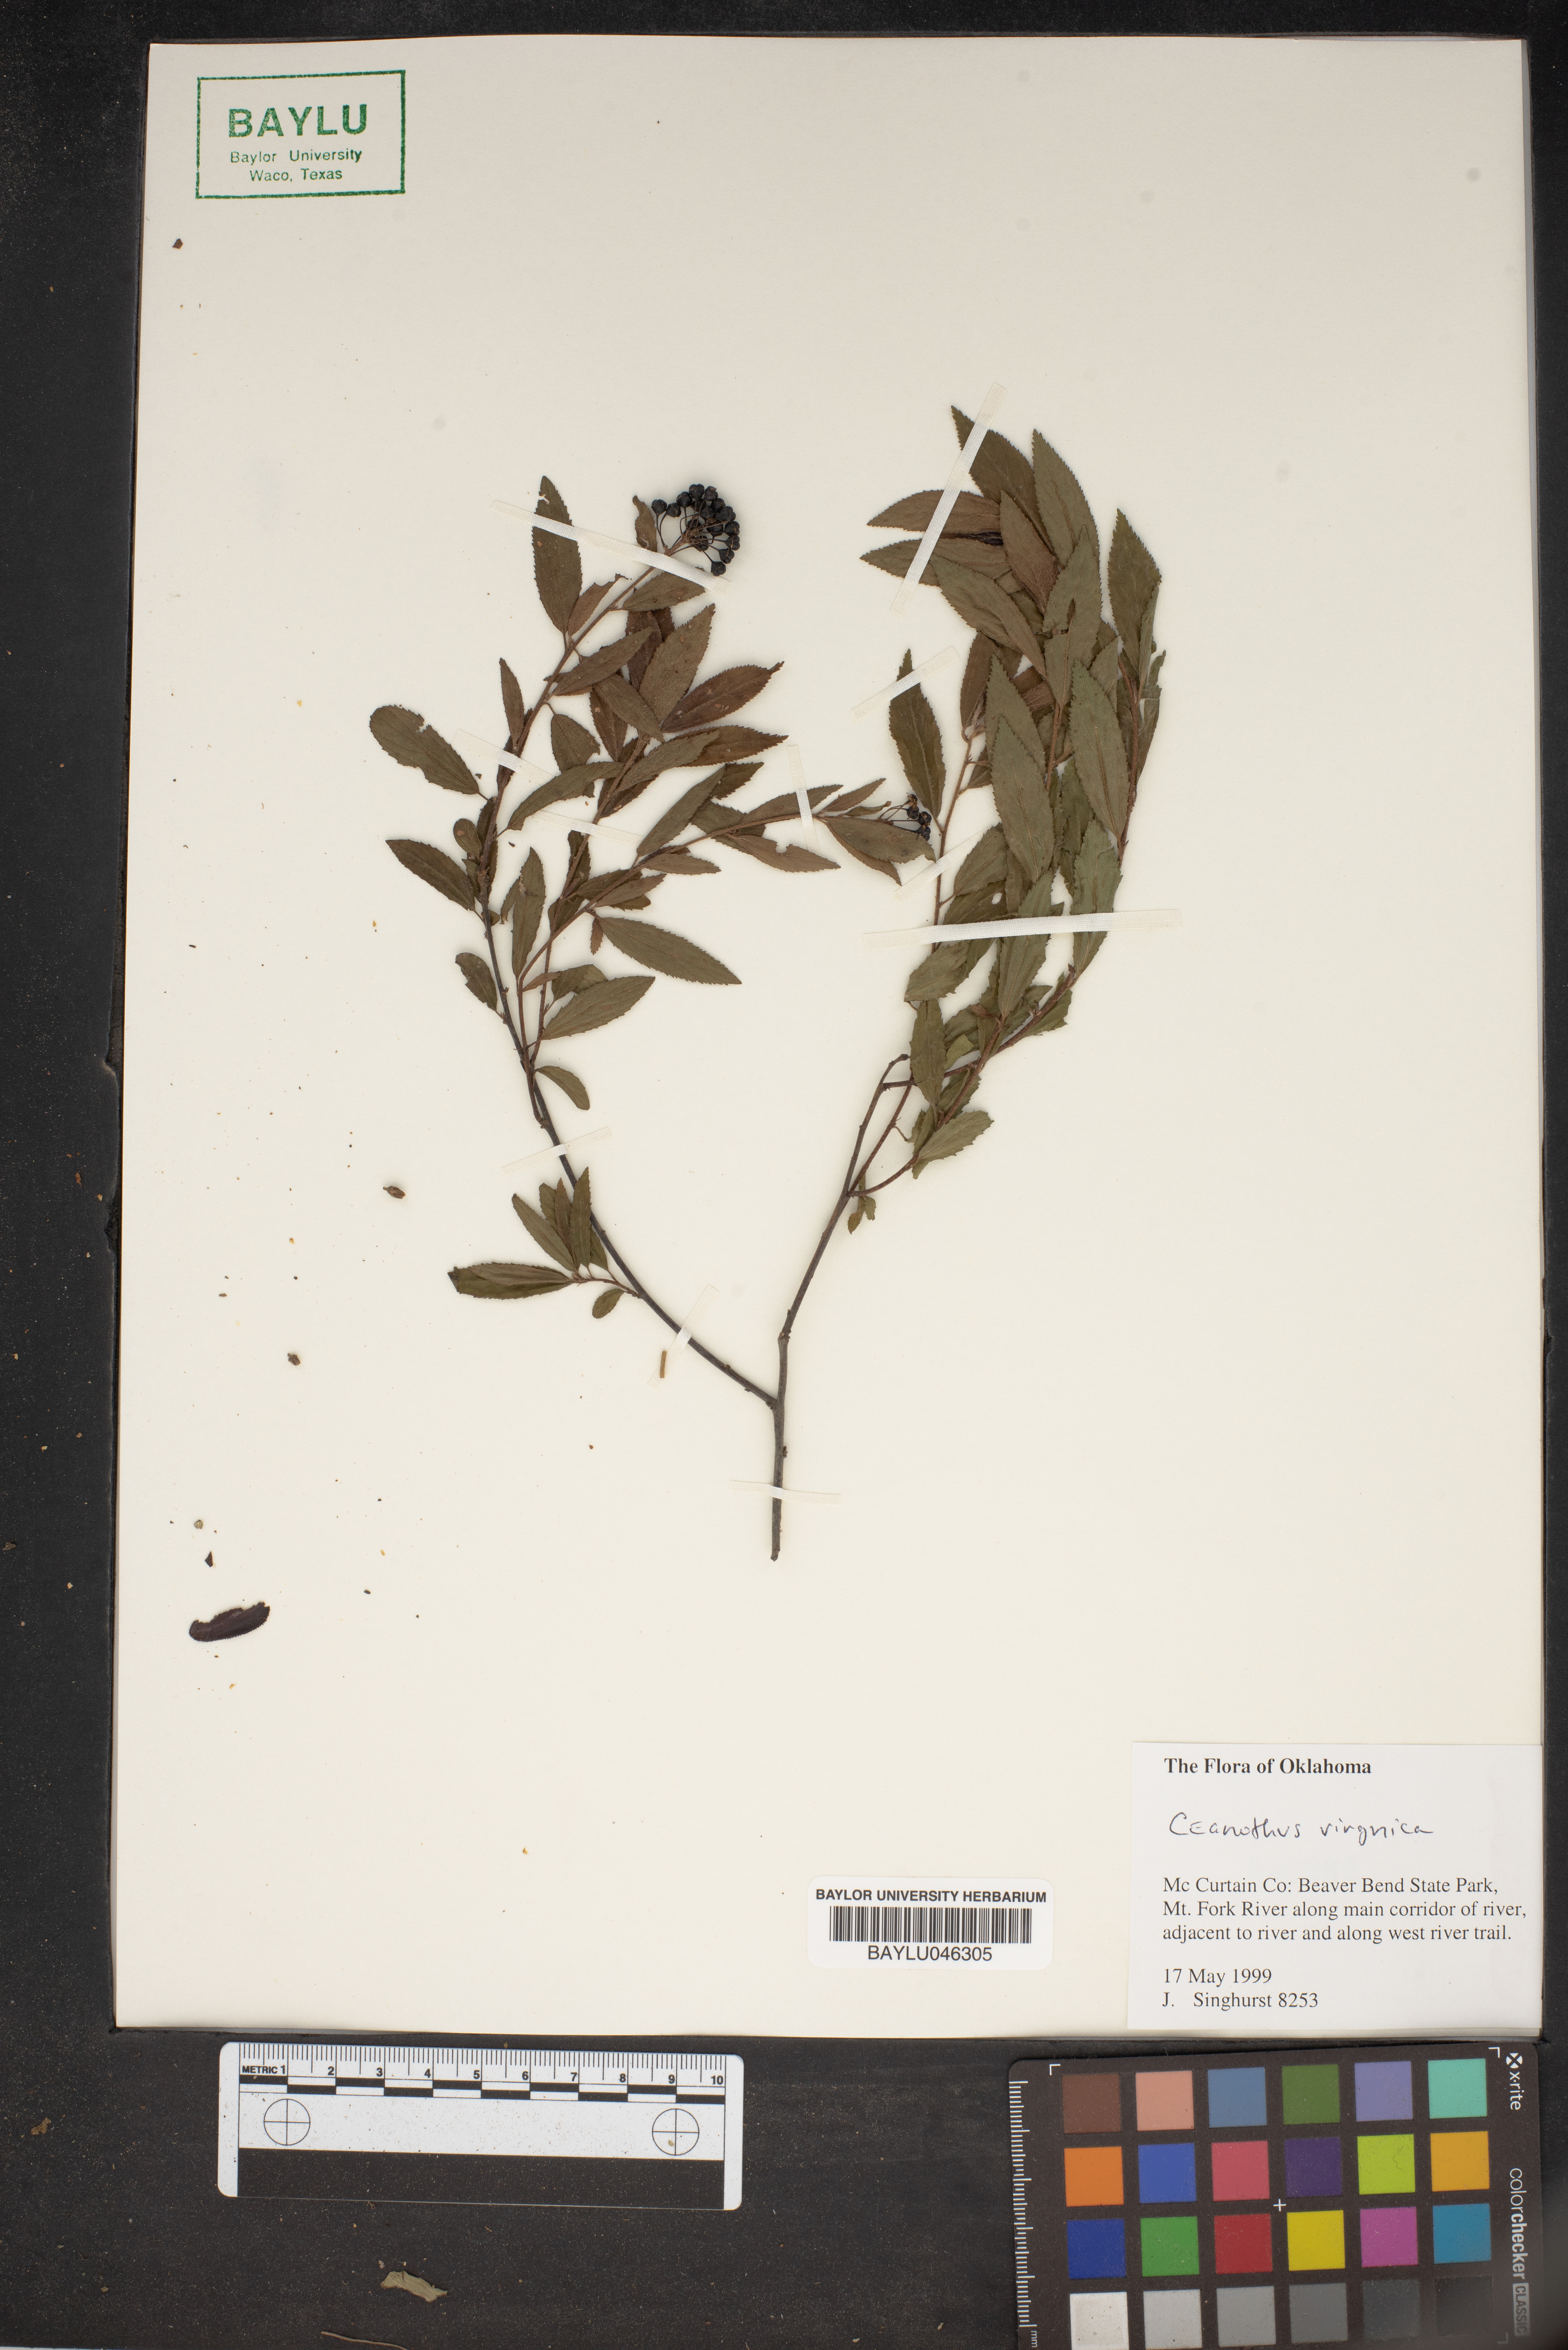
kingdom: Plantae
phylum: Tracheophyta
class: Magnoliopsida
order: Rosales
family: Rhamnaceae
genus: Ceanothus
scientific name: Ceanothus
